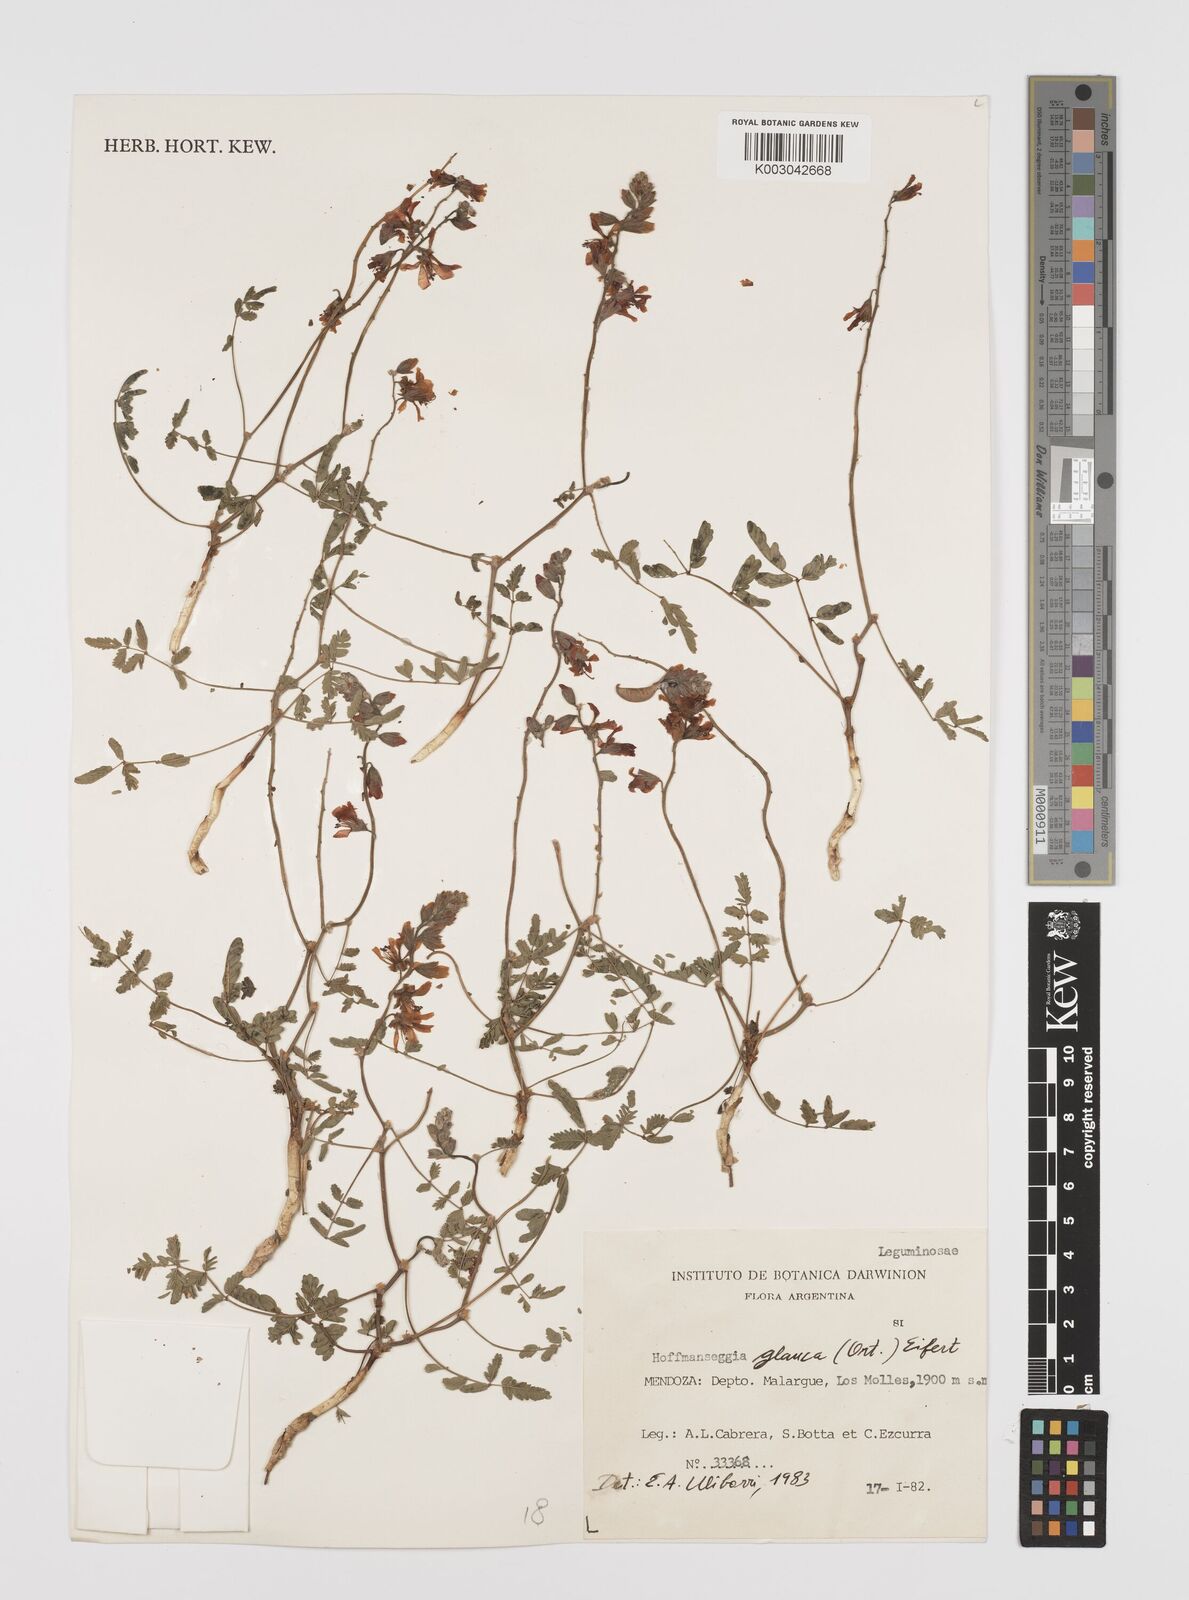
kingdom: Plantae
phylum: Tracheophyta
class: Magnoliopsida
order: Fabales
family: Fabaceae
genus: Hoffmannseggia
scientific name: Hoffmannseggia glauca
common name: Pignut
